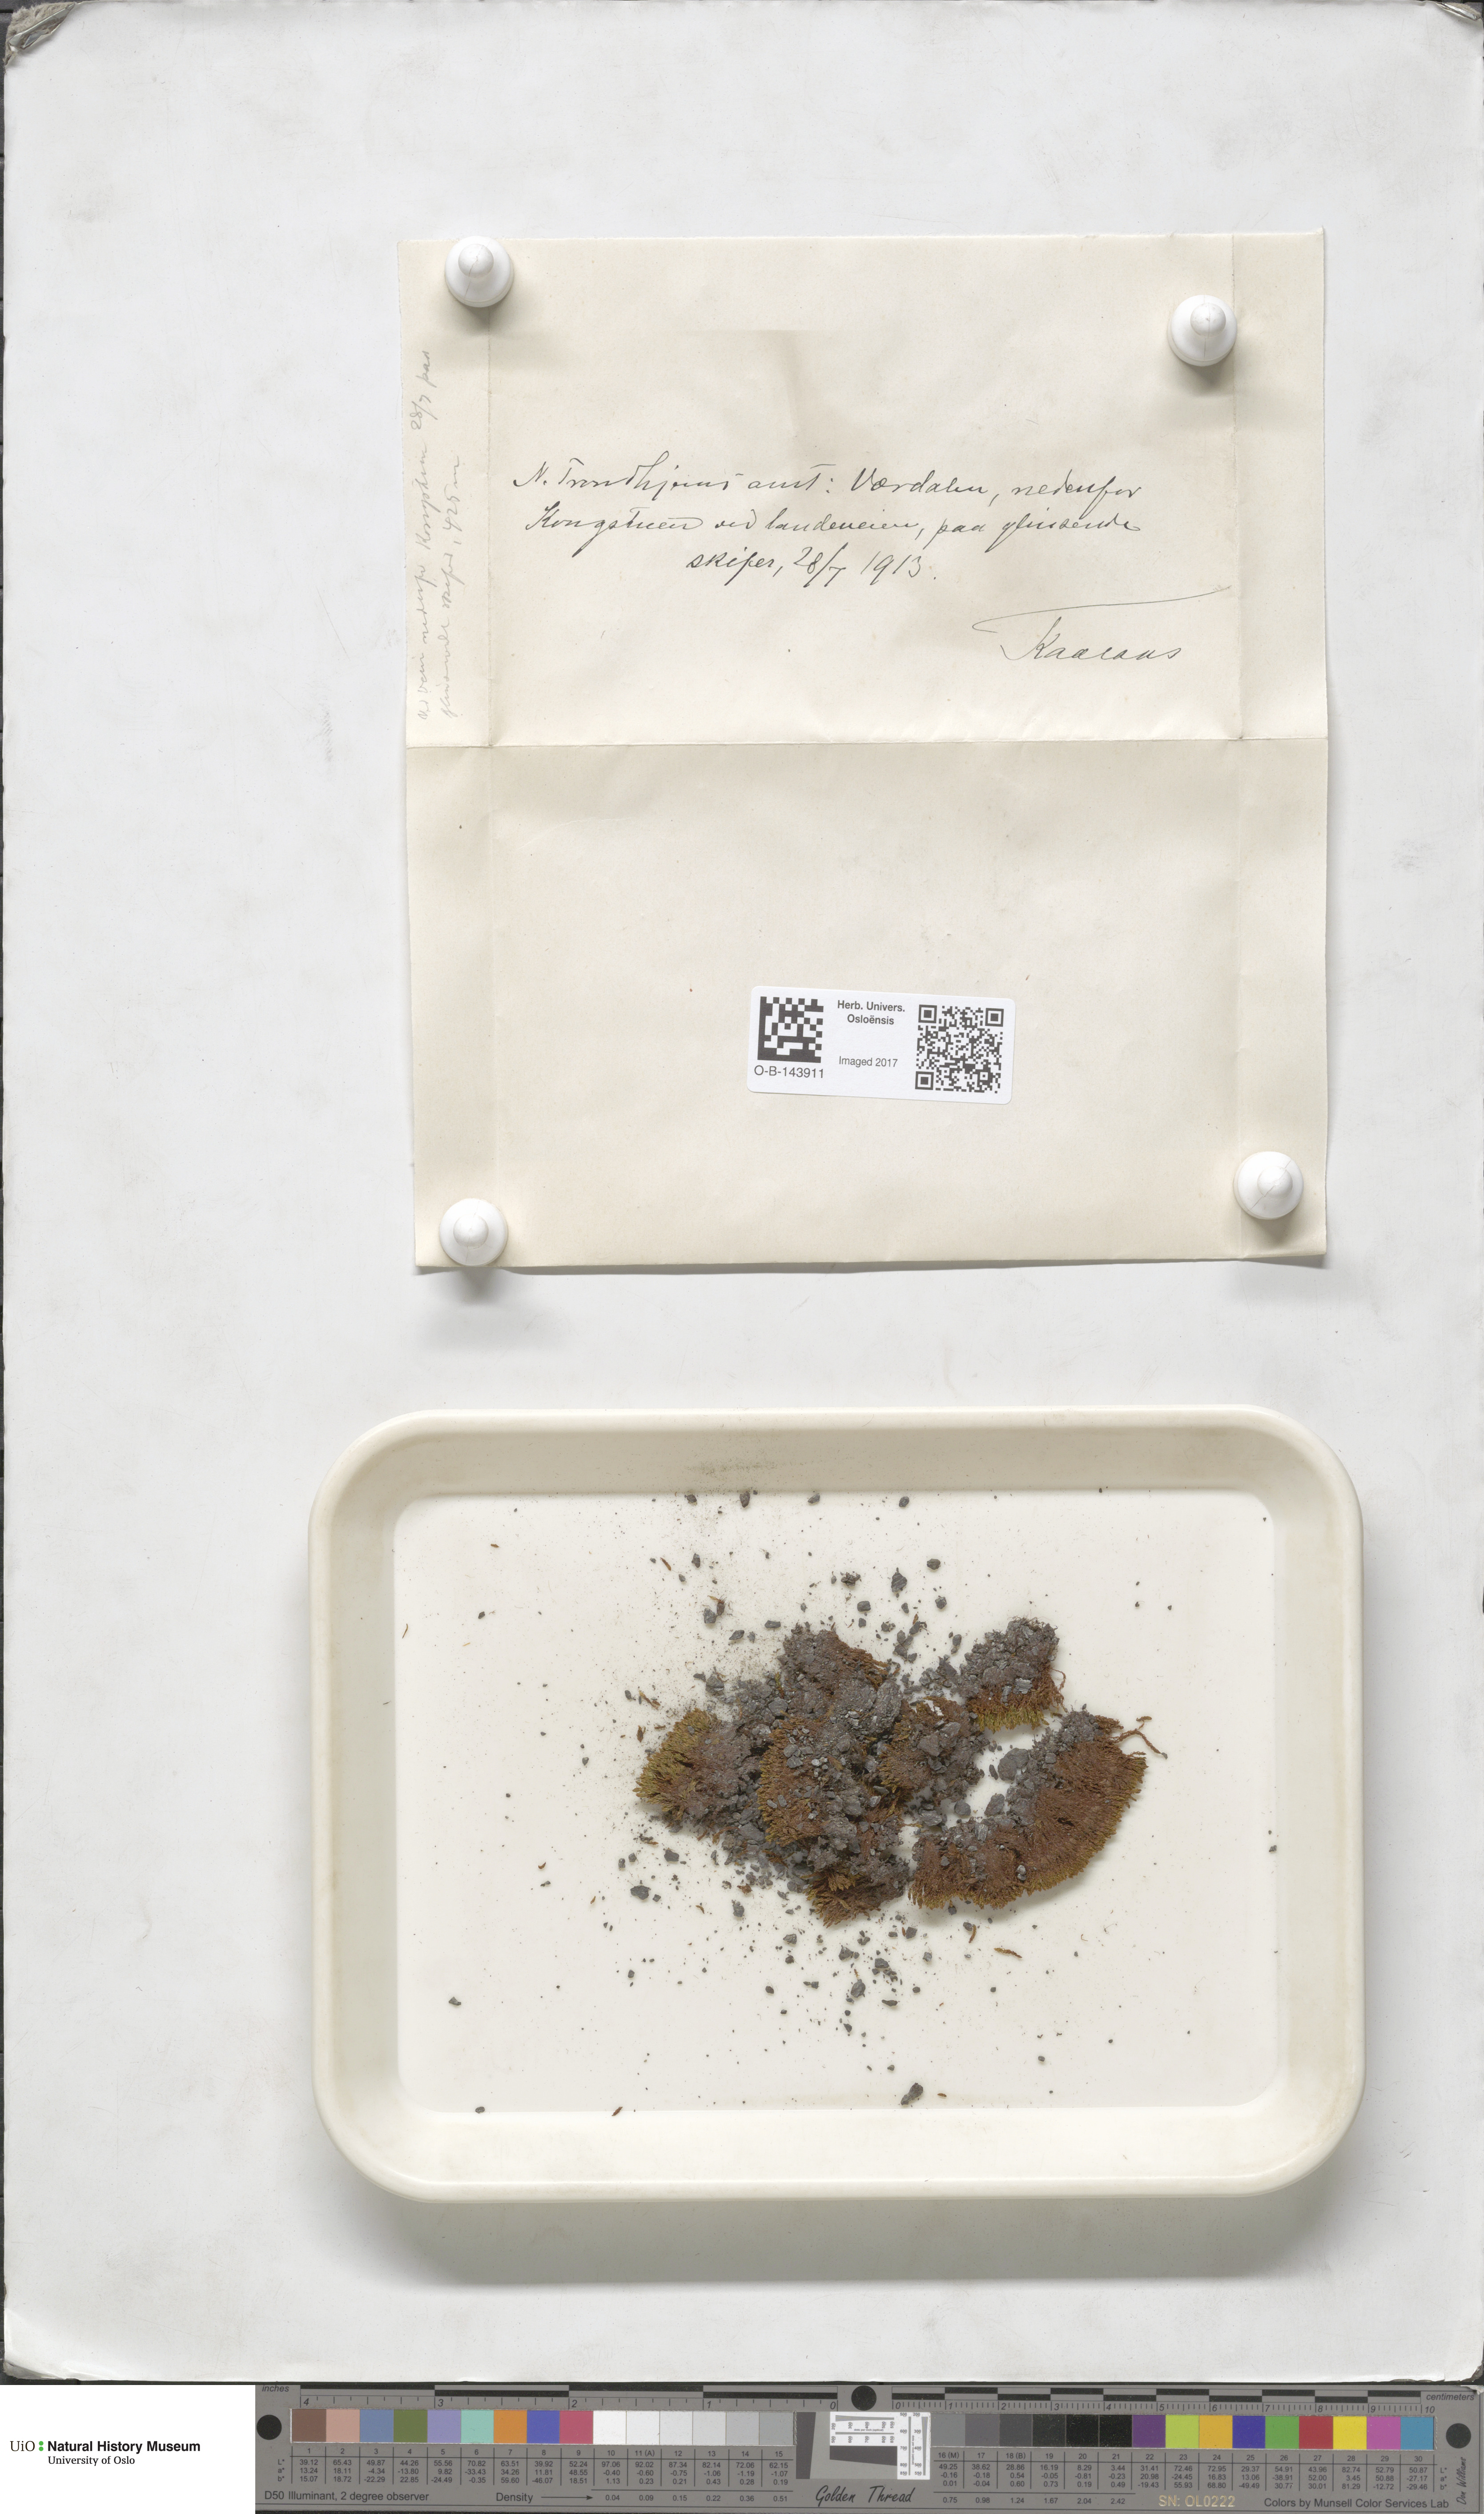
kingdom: Plantae
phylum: Bryophyta
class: Bryopsida
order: Bryales
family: Bryaceae
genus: Bryum
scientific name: Bryum
